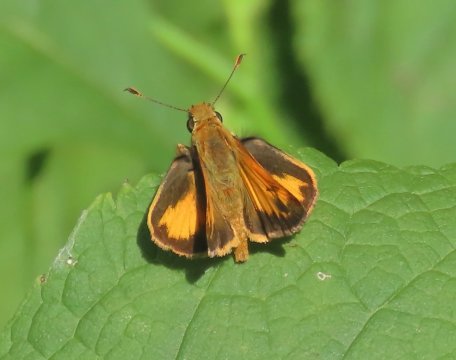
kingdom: Animalia
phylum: Arthropoda
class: Insecta
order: Lepidoptera
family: Hesperiidae
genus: Lon
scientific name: Lon zabulon
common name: Zabulon Skipper
